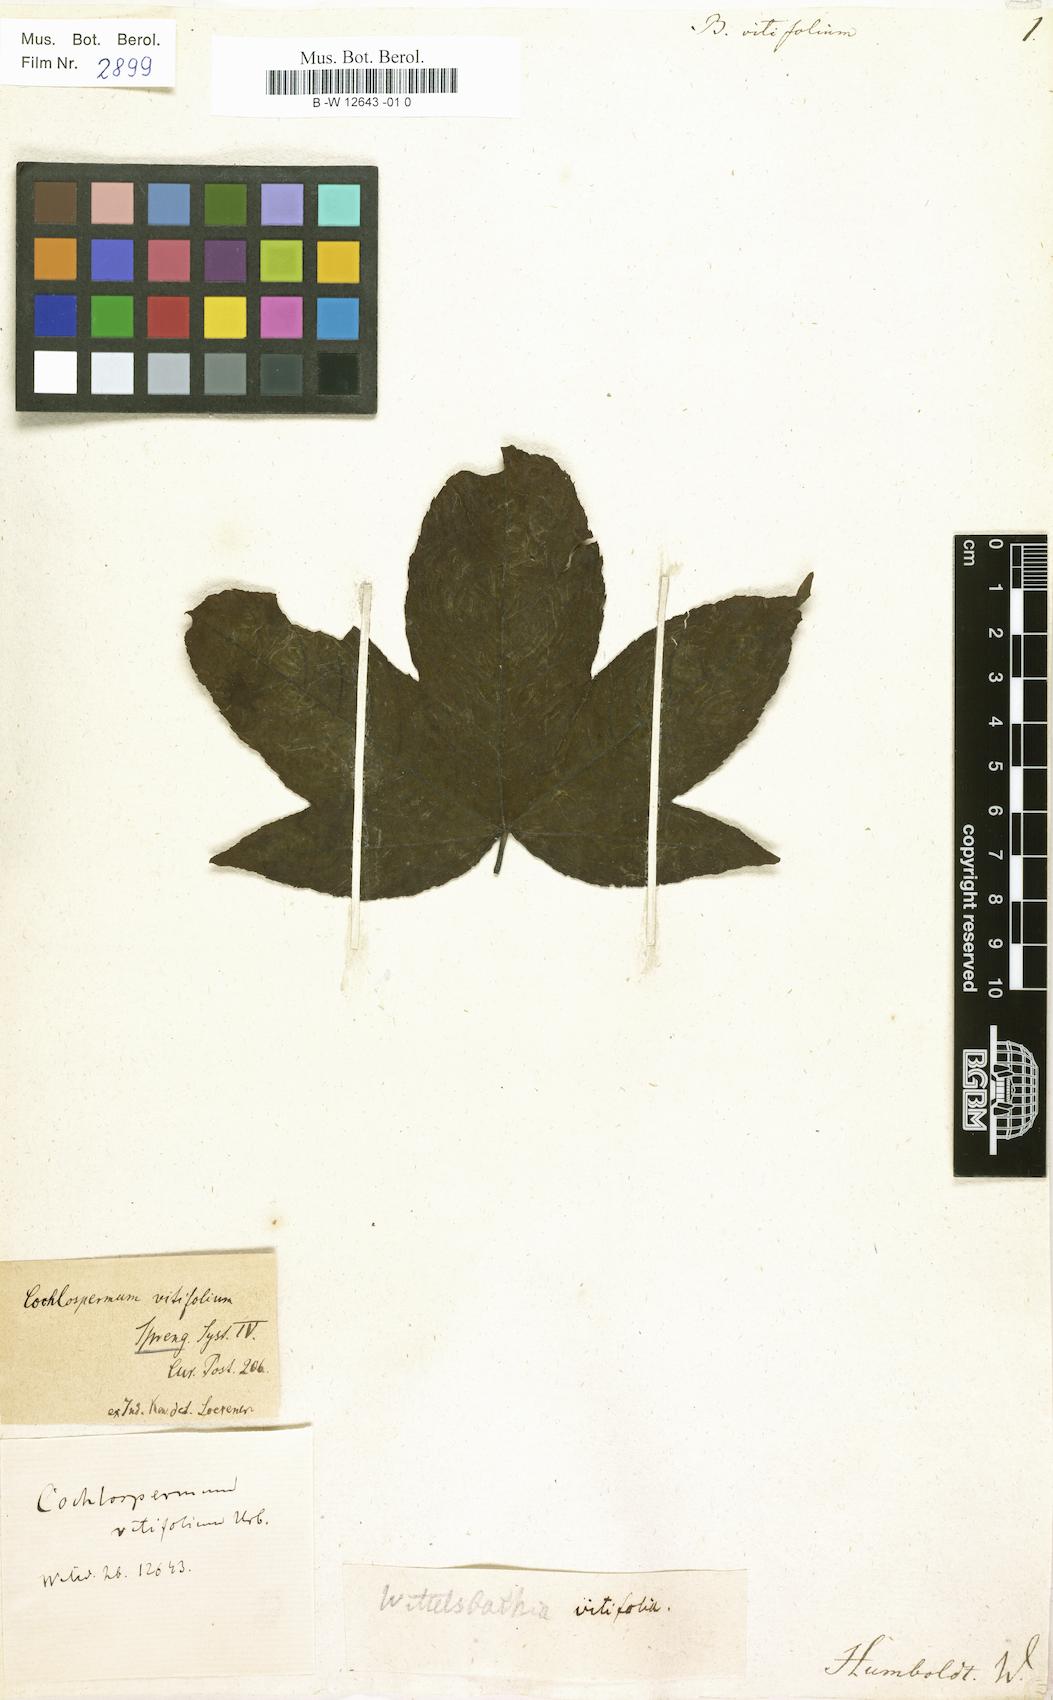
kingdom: Plantae
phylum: Tracheophyta
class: Magnoliopsida
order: Malvales
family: Cochlospermaceae
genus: Cochlospermum
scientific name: Cochlospermum vitifolium
